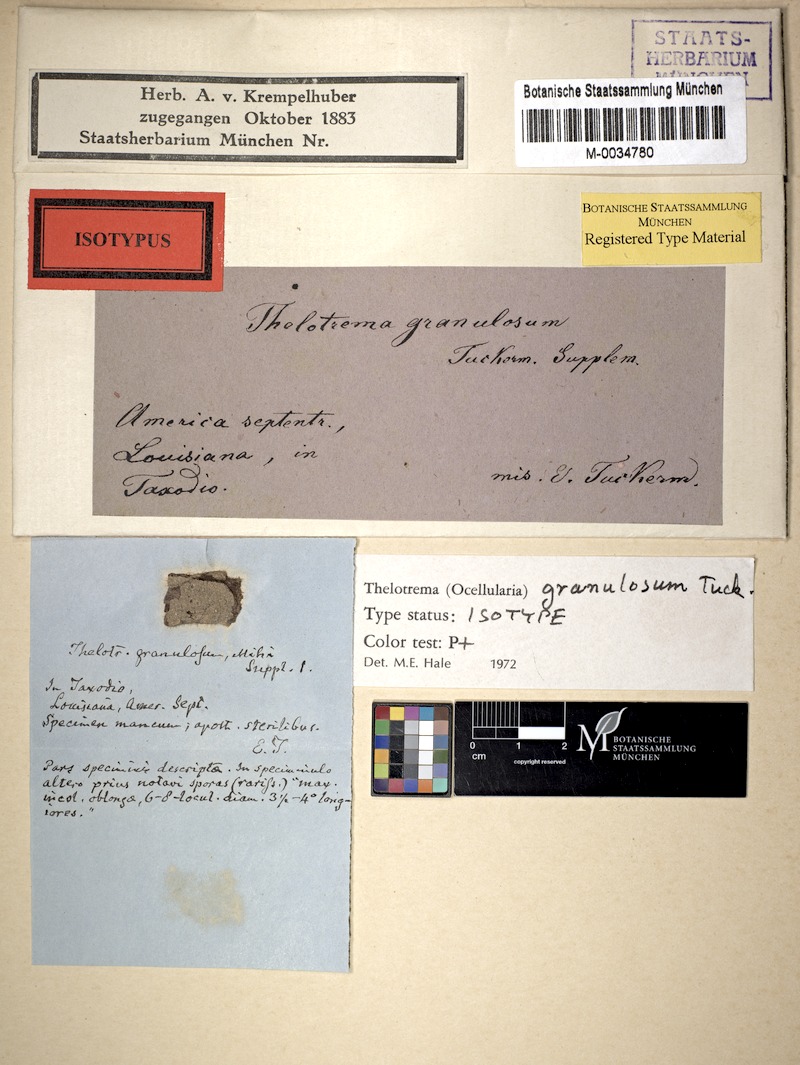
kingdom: Fungi
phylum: Ascomycota
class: Lecanoromycetes
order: Ostropales
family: Graphidaceae
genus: Rhabdodiscus
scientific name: Rhabdodiscus granulosus
